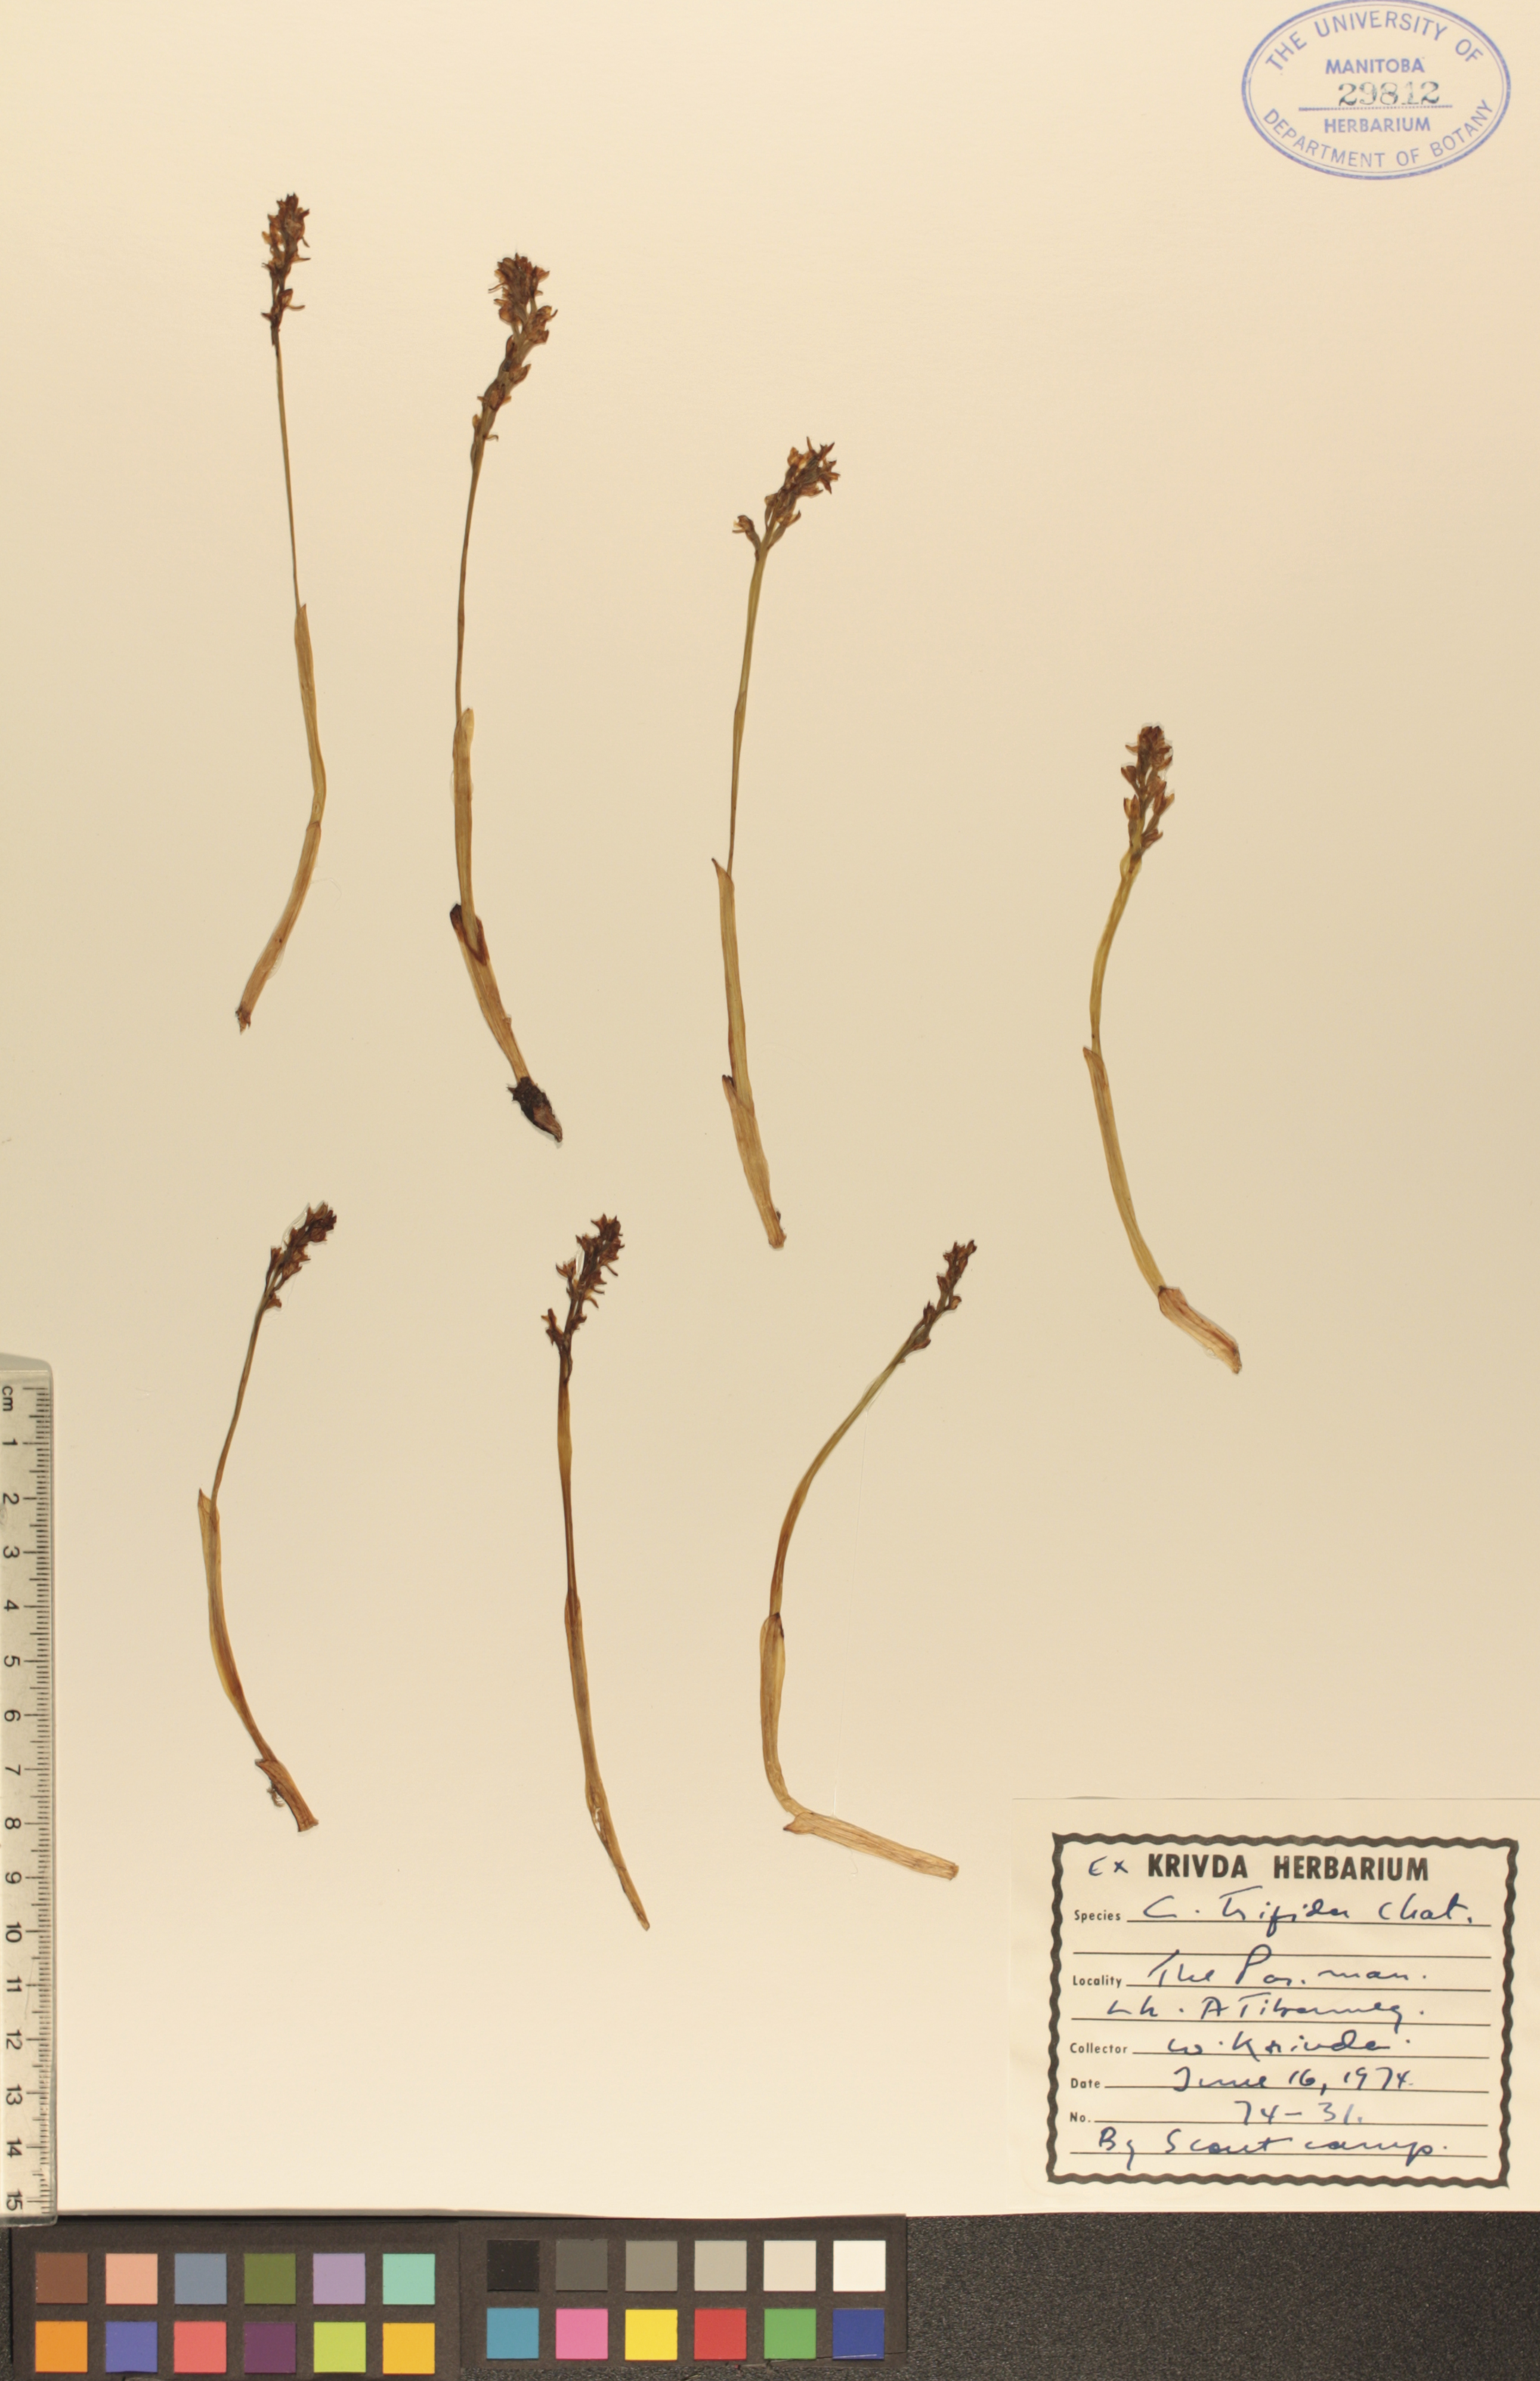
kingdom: Plantae
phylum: Tracheophyta
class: Liliopsida
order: Asparagales
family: Orchidaceae
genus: Corallorhiza
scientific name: Corallorhiza trifida
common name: Yellow coralroot
